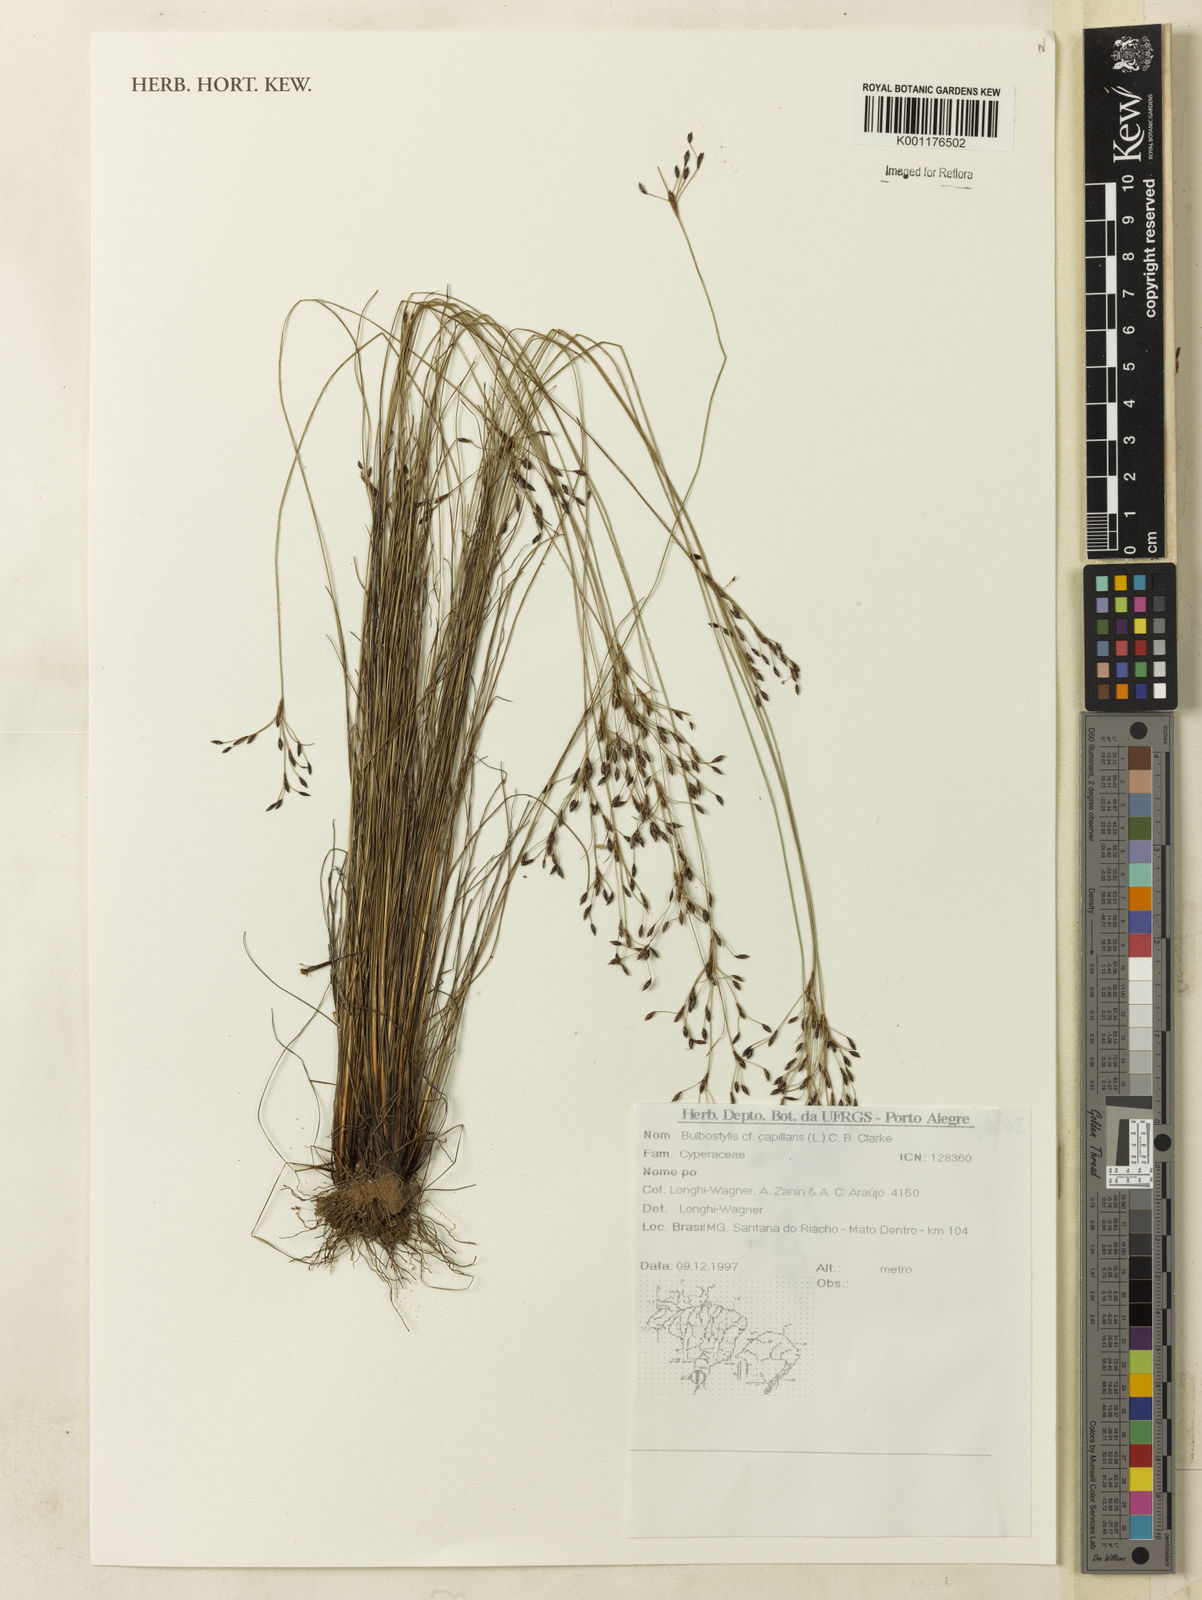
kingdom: Plantae
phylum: Tracheophyta
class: Liliopsida
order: Poales
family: Cyperaceae
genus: Bulbostylis
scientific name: Bulbostylis capillaris
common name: Densetuft hairsedge
